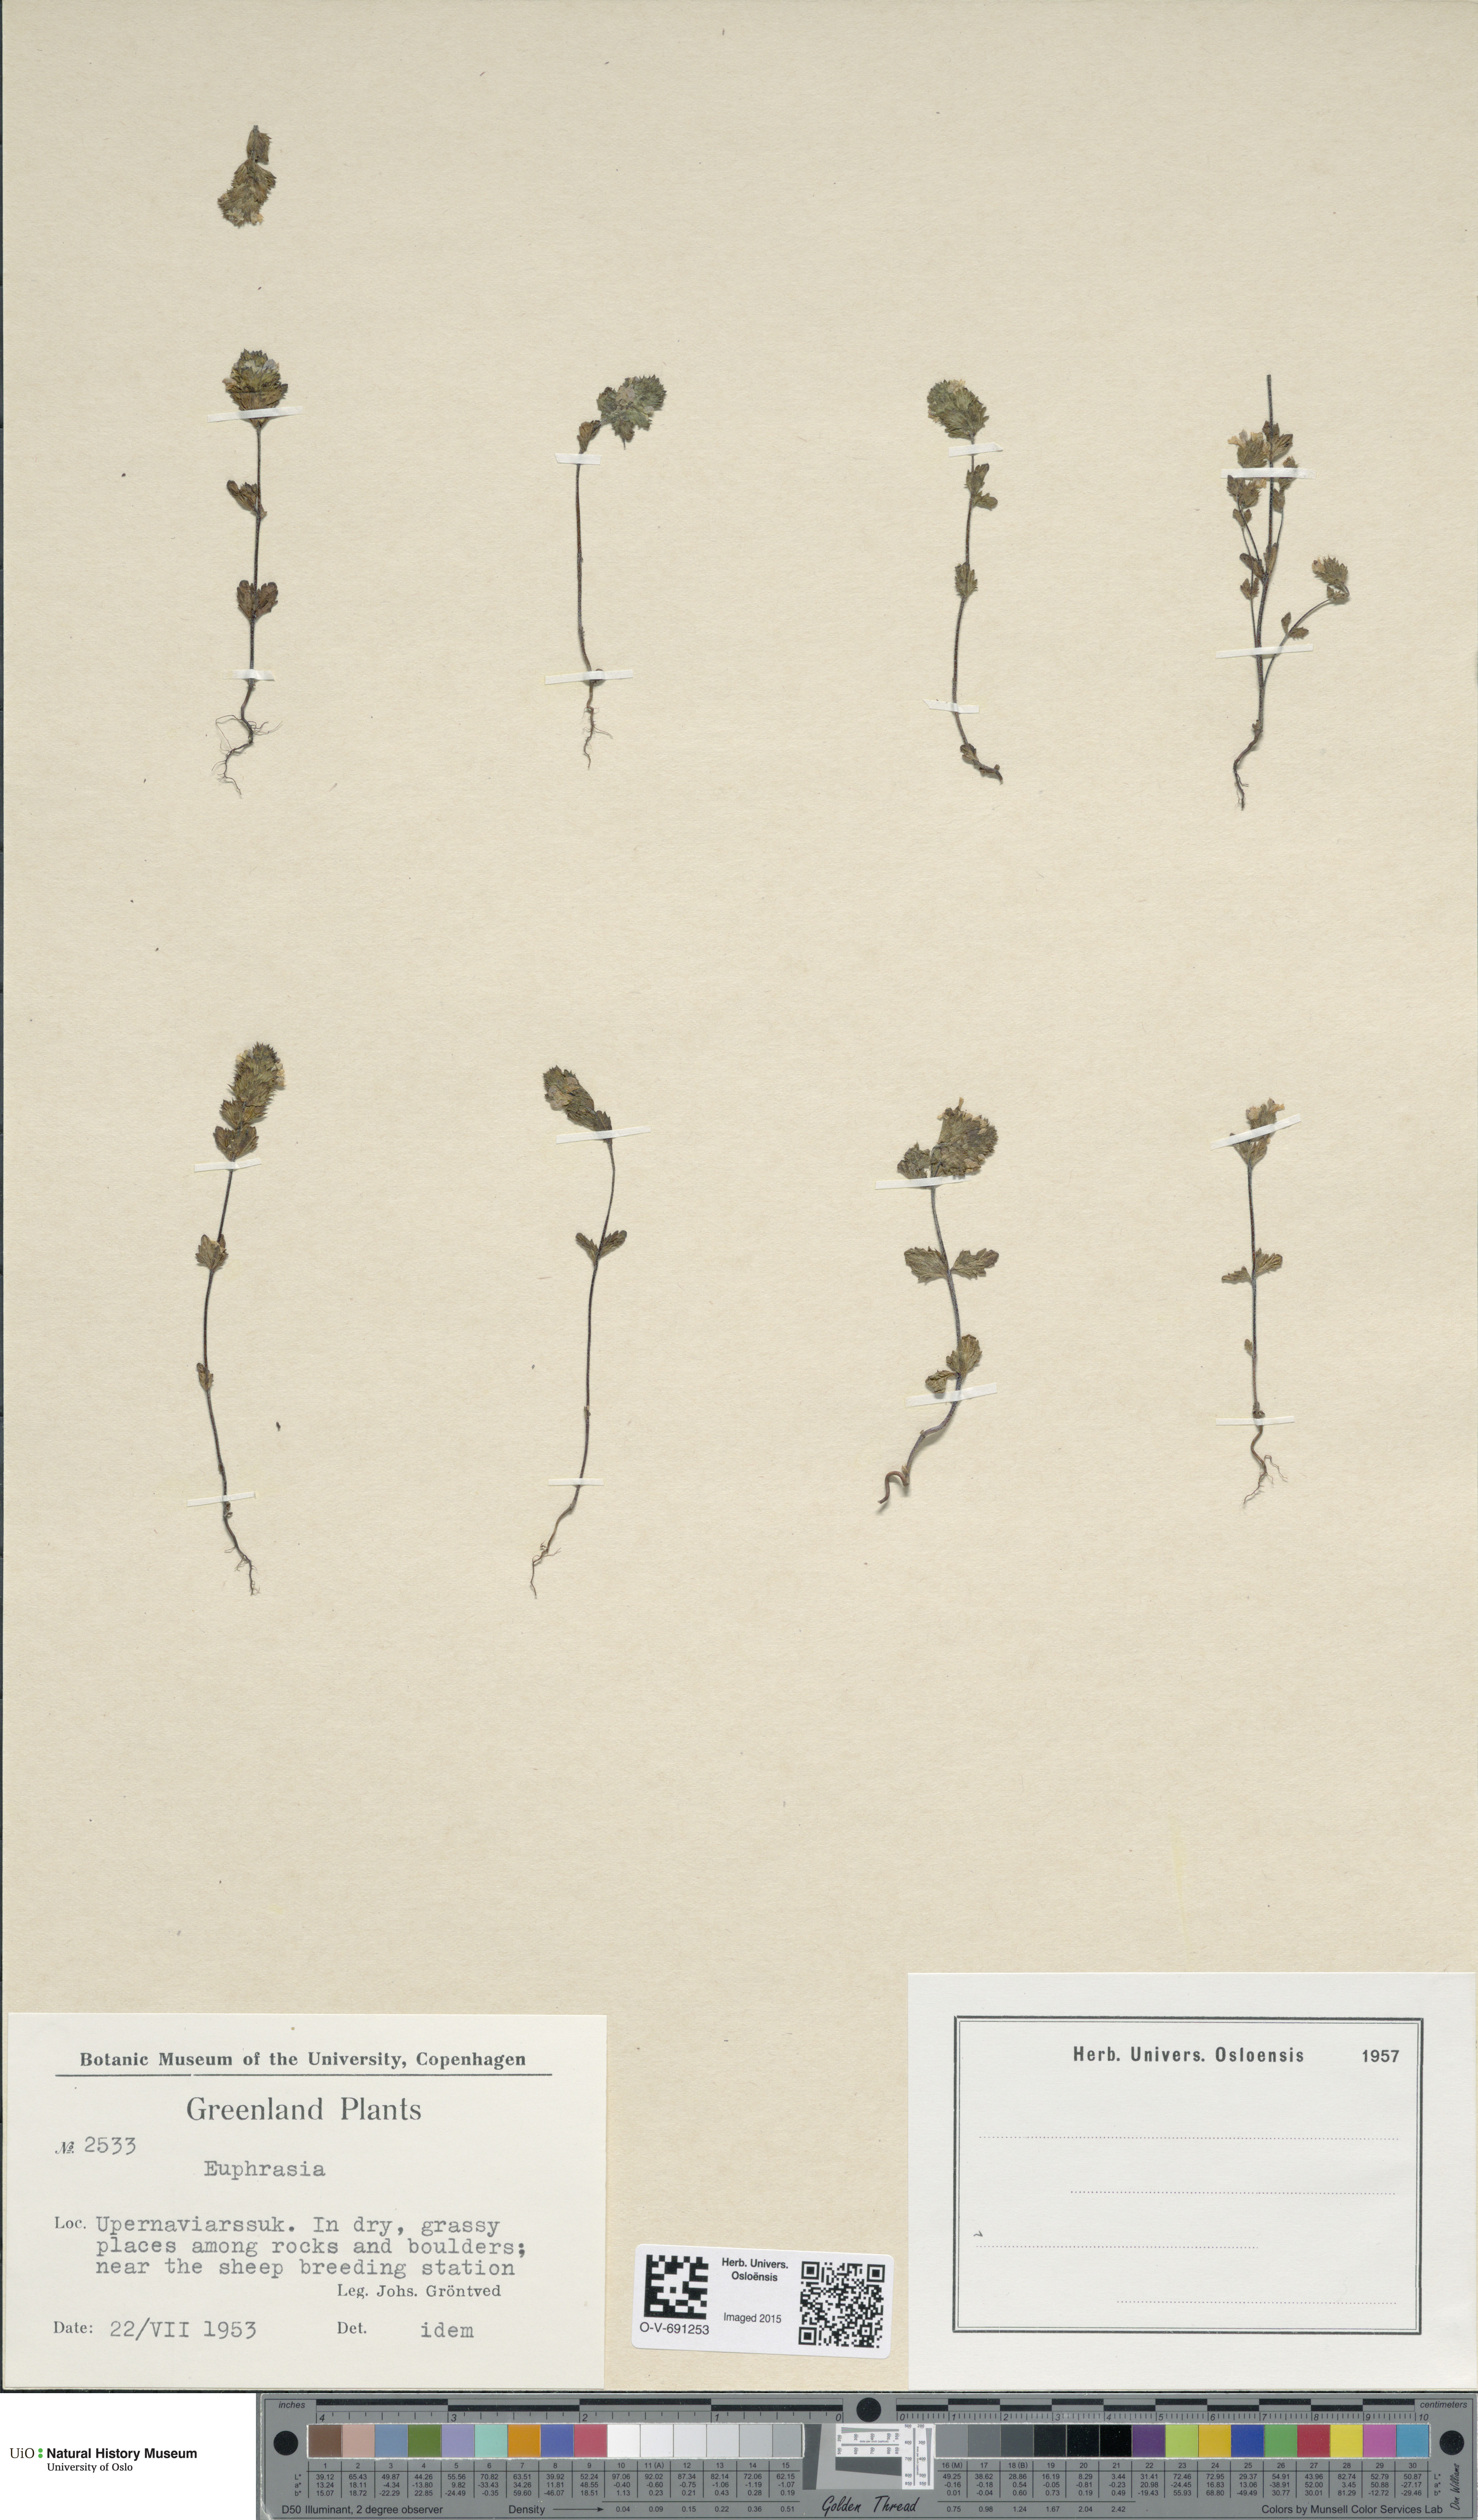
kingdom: Plantae
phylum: Tracheophyta
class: Magnoliopsida
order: Lamiales
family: Orobanchaceae
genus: Euphrasia
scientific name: Euphrasia
